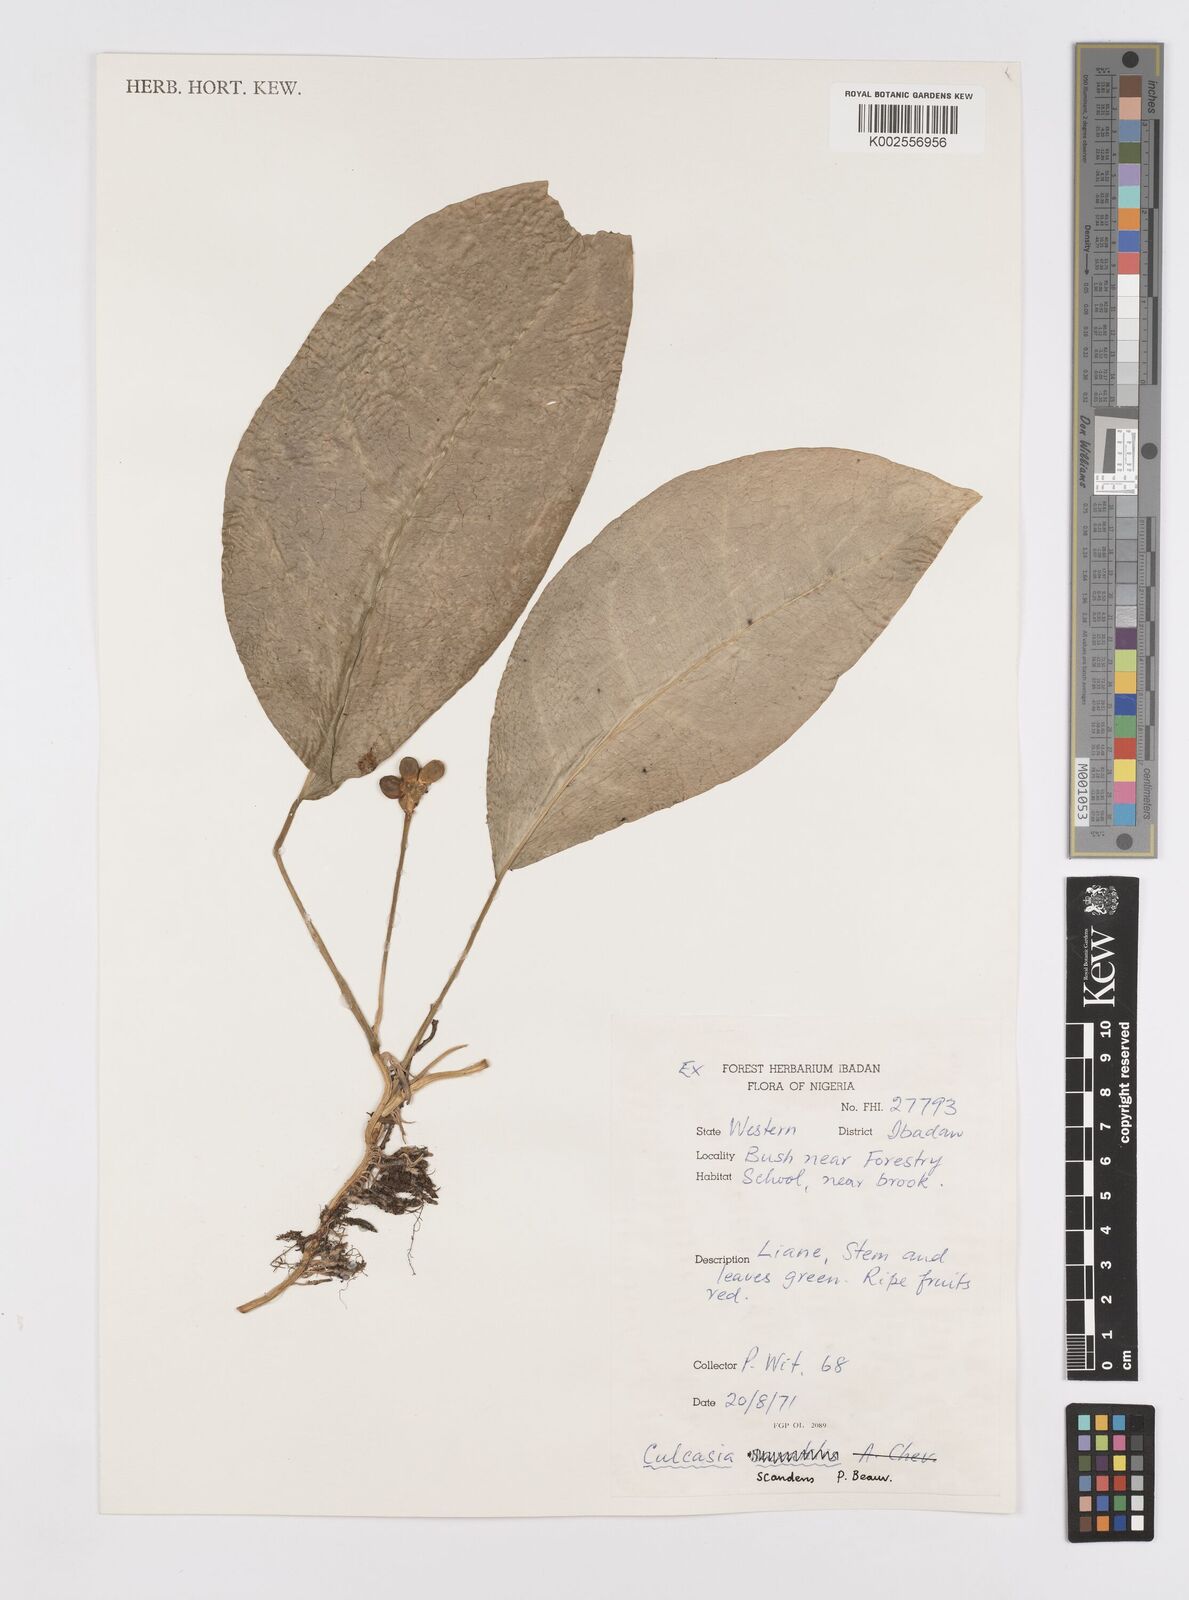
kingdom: Plantae
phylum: Tracheophyta
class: Liliopsida
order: Alismatales
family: Araceae
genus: Culcasia
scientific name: Culcasia scandens
